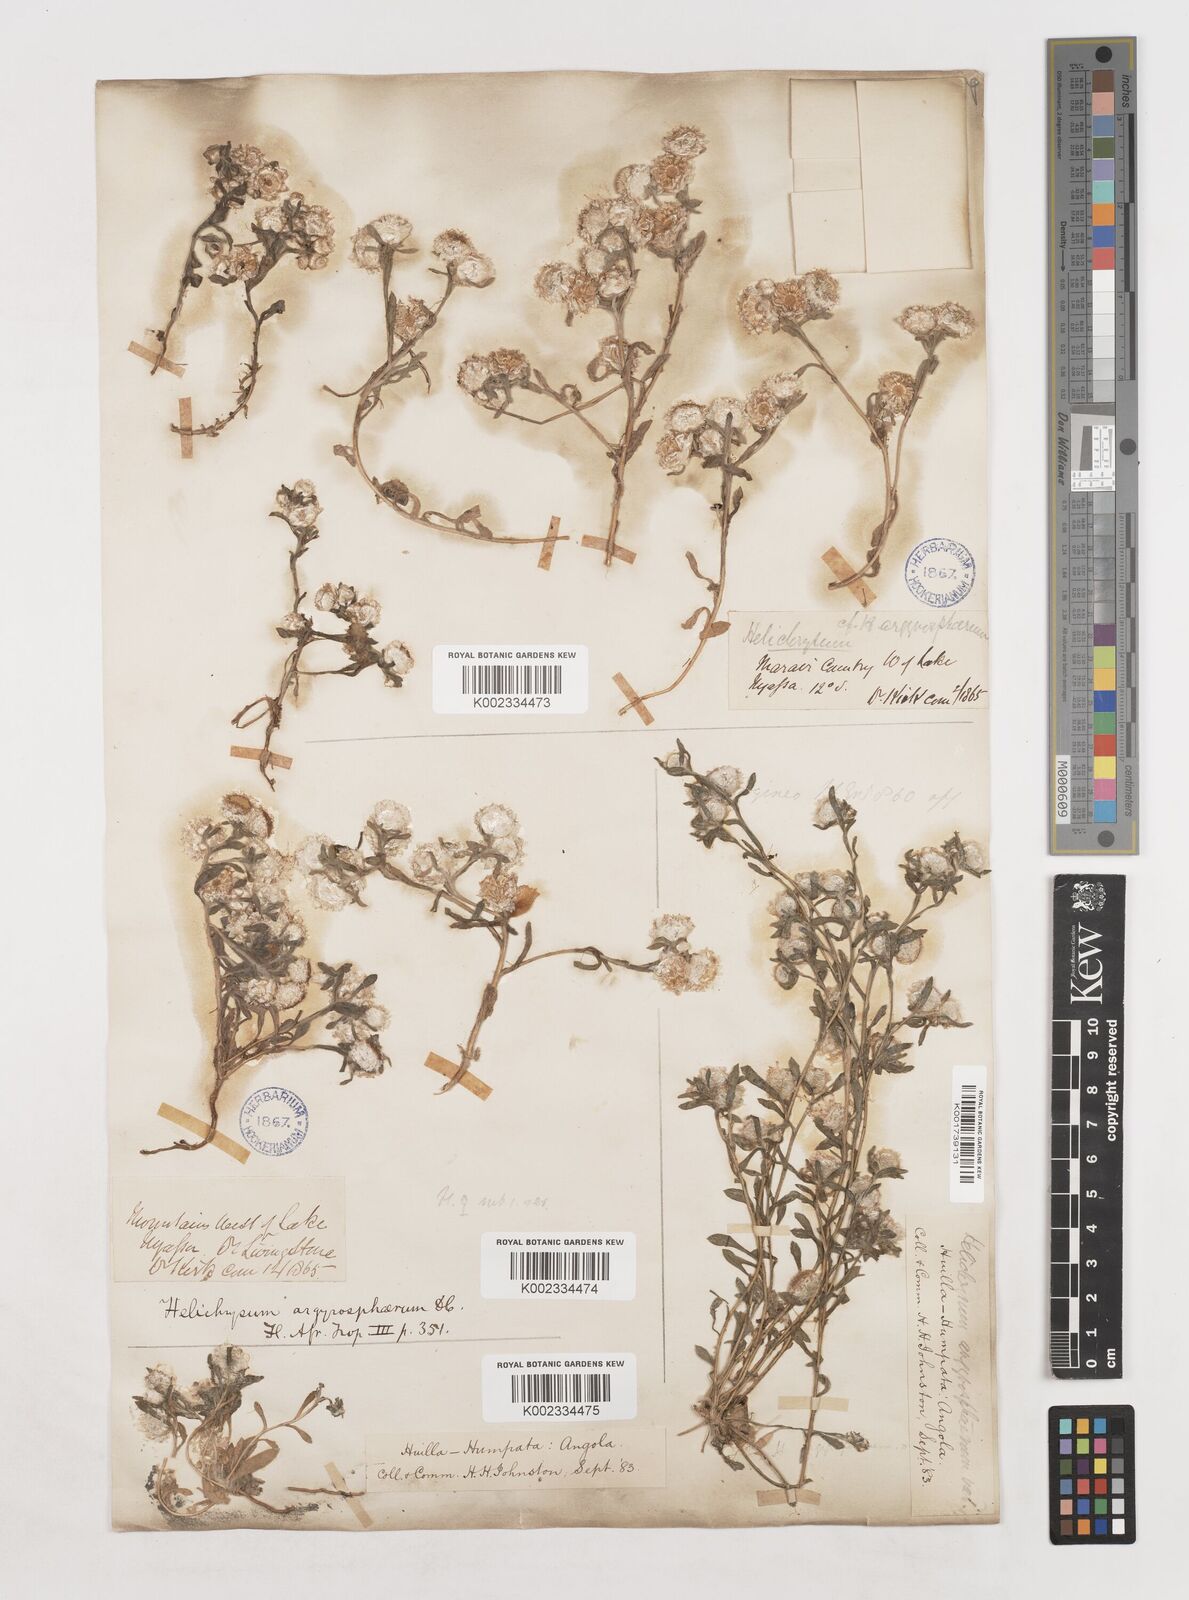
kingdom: Plantae
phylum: Tracheophyta
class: Magnoliopsida
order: Asterales
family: Asteraceae
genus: Helichrysum
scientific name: Helichrysum argyrosphaerum
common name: Wild everlasting
